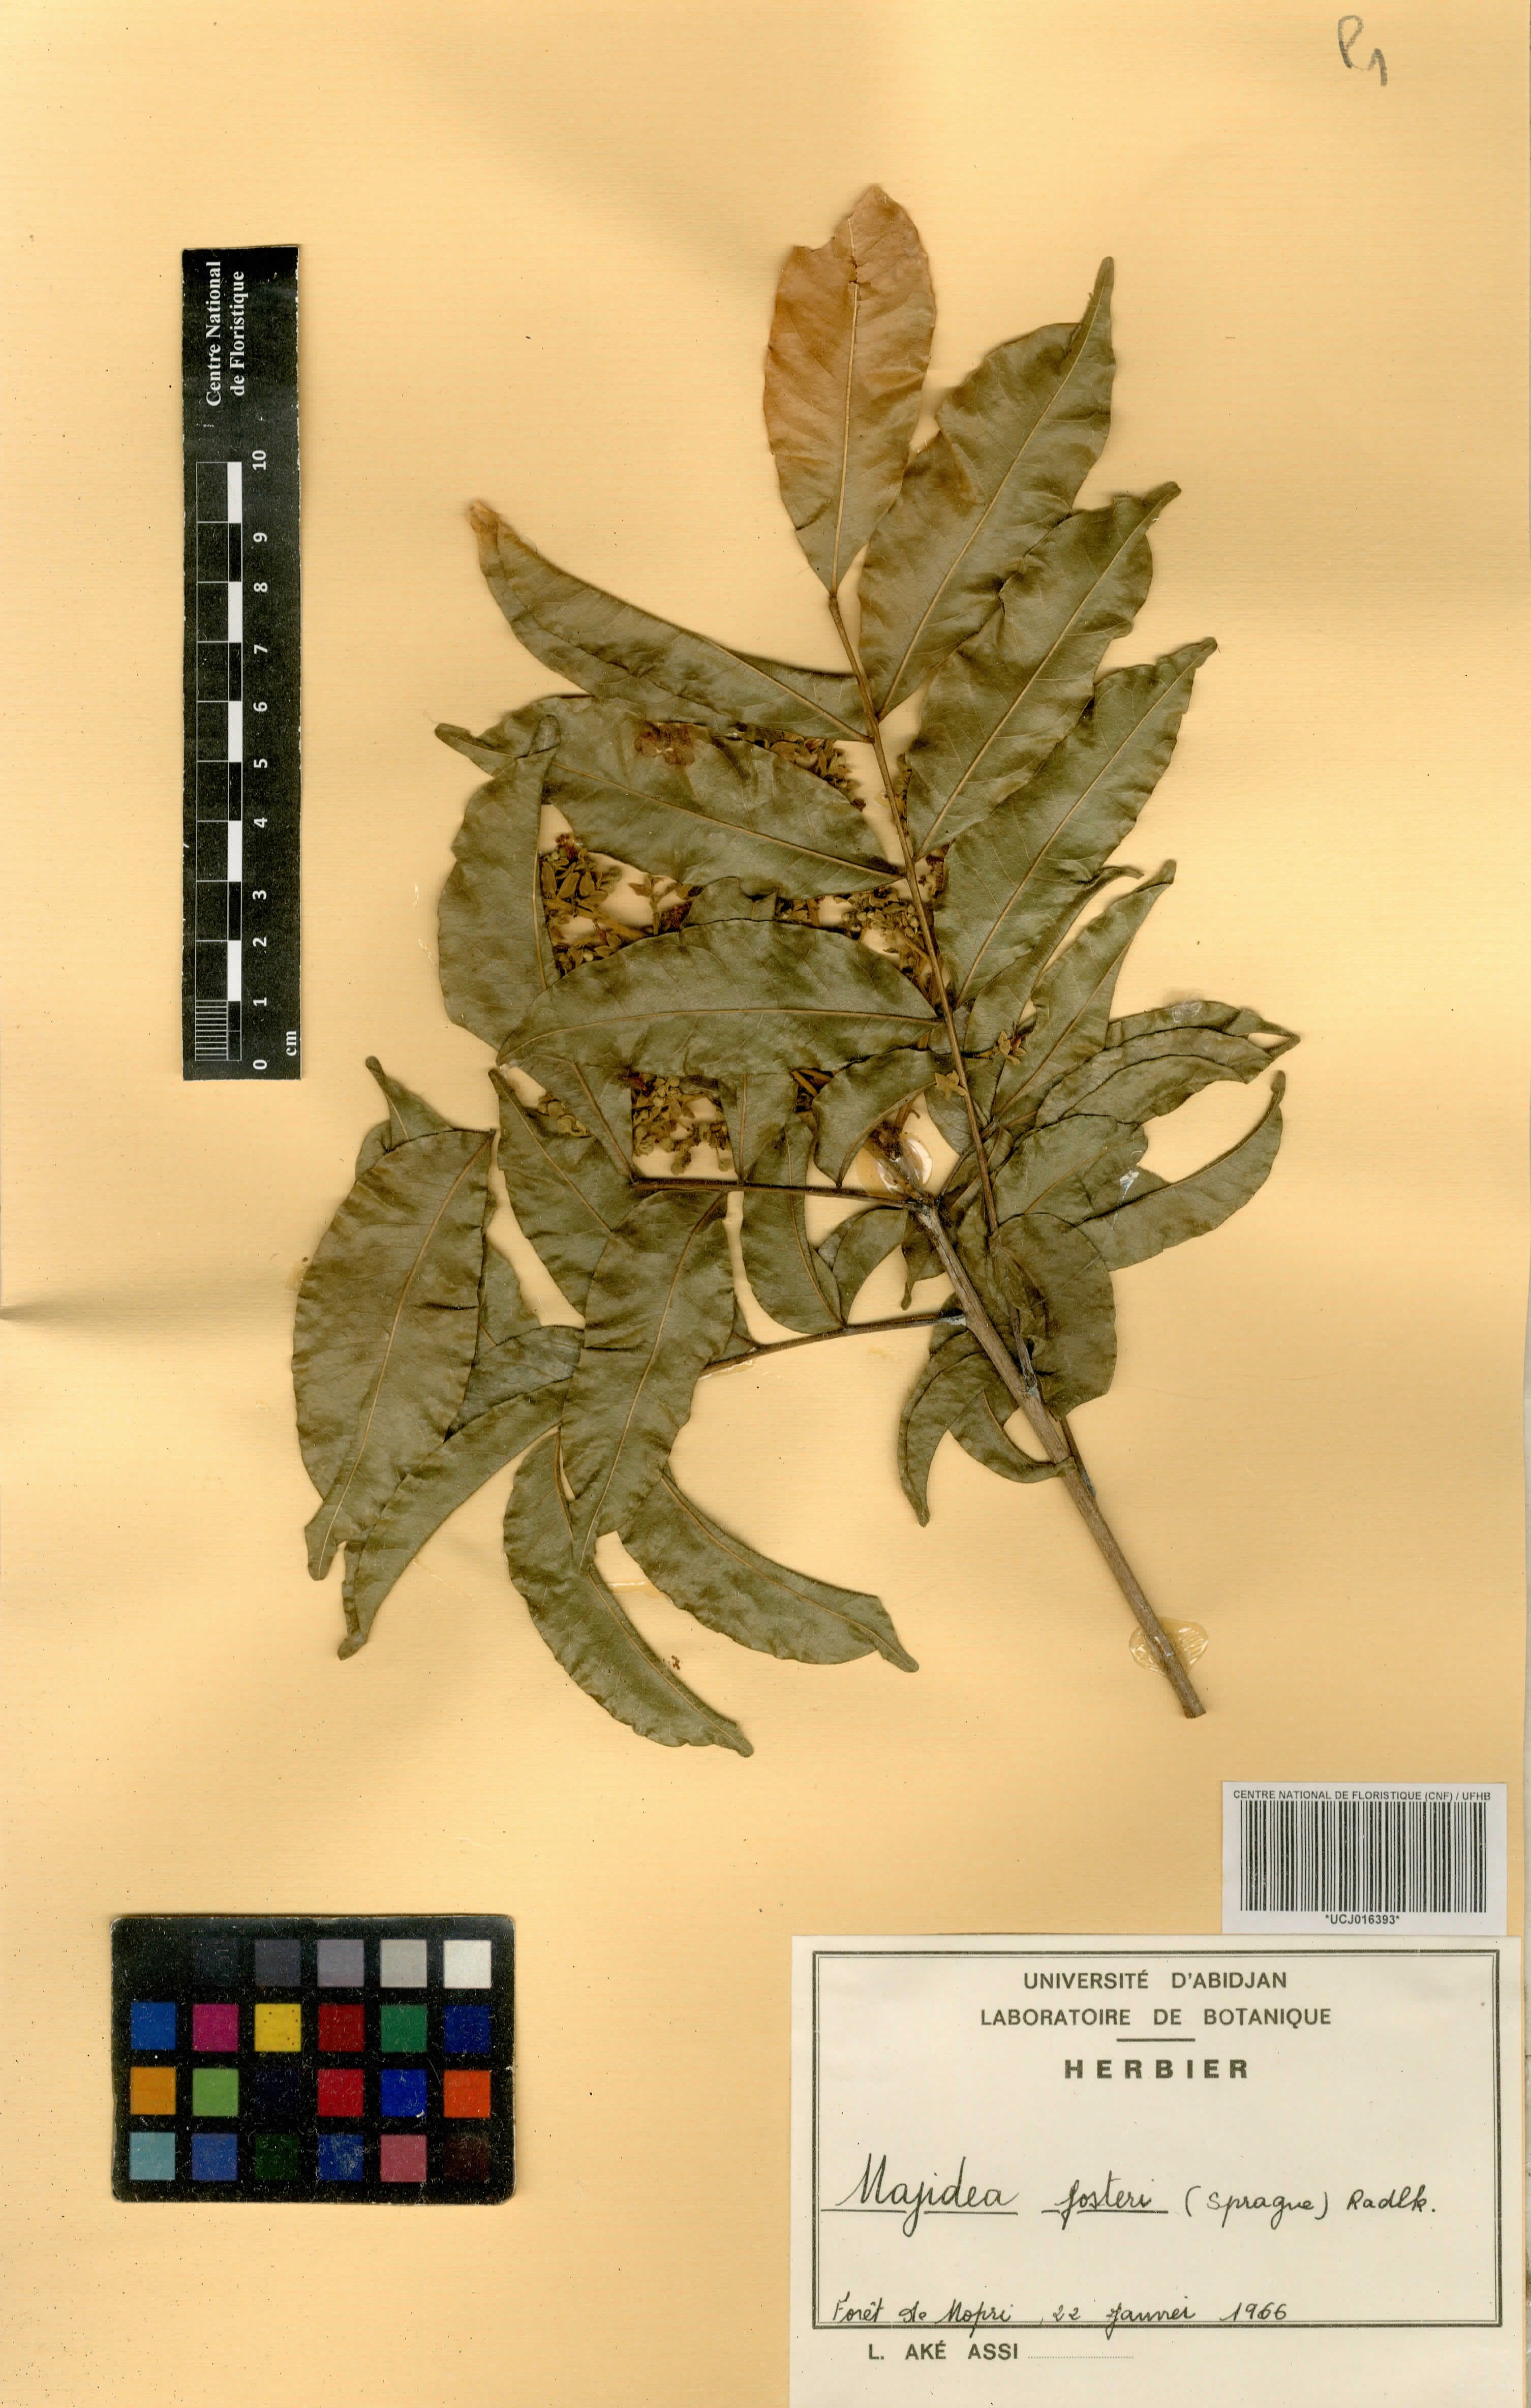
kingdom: Plantae
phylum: Tracheophyta
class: Magnoliopsida
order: Sapindales
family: Sapindaceae
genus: Majidea
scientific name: Majidea fosteri
